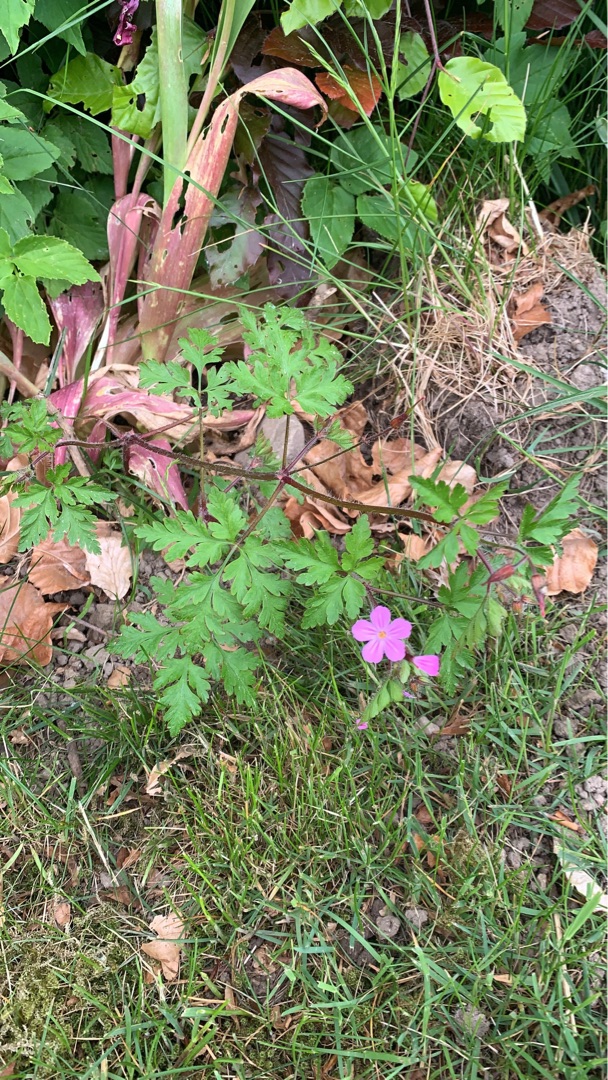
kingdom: Plantae
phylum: Tracheophyta
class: Magnoliopsida
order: Geraniales
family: Geraniaceae
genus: Geranium
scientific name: Geranium robertianum
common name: Stinkende storkenæb
